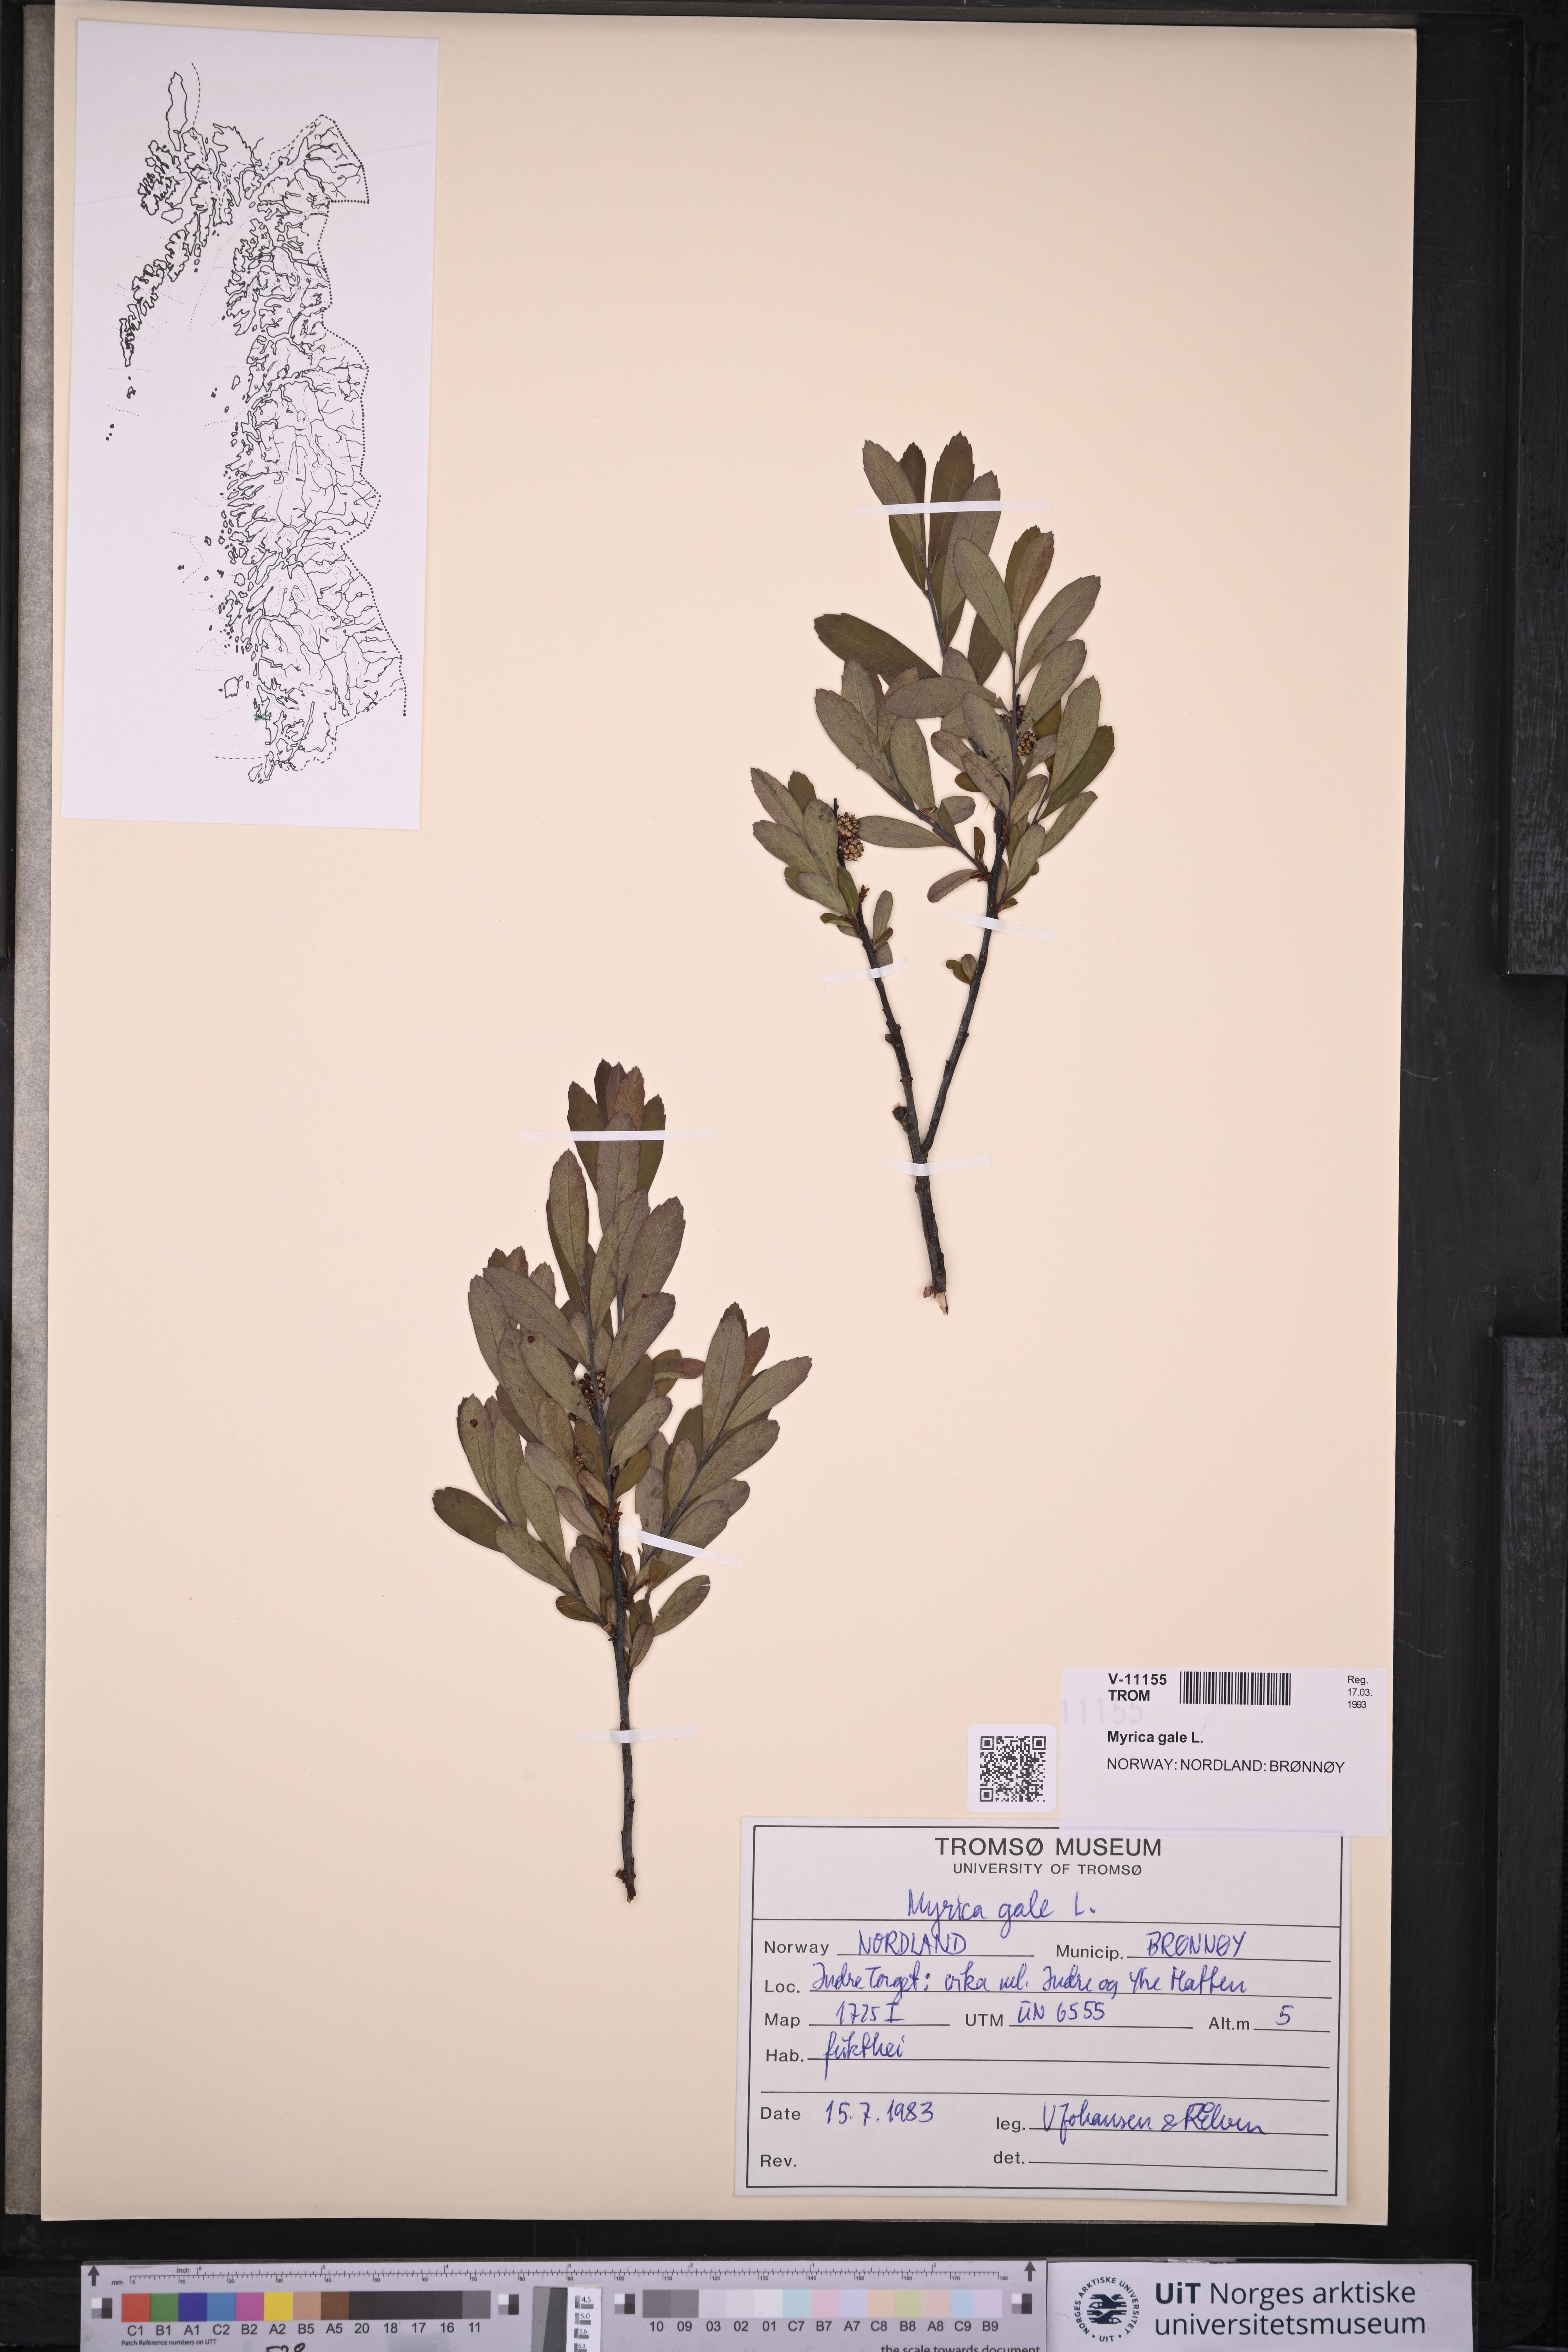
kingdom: Plantae
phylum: Tracheophyta
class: Magnoliopsida
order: Fagales
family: Myricaceae
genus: Myrica
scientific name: Myrica gale
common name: Sweet gale
